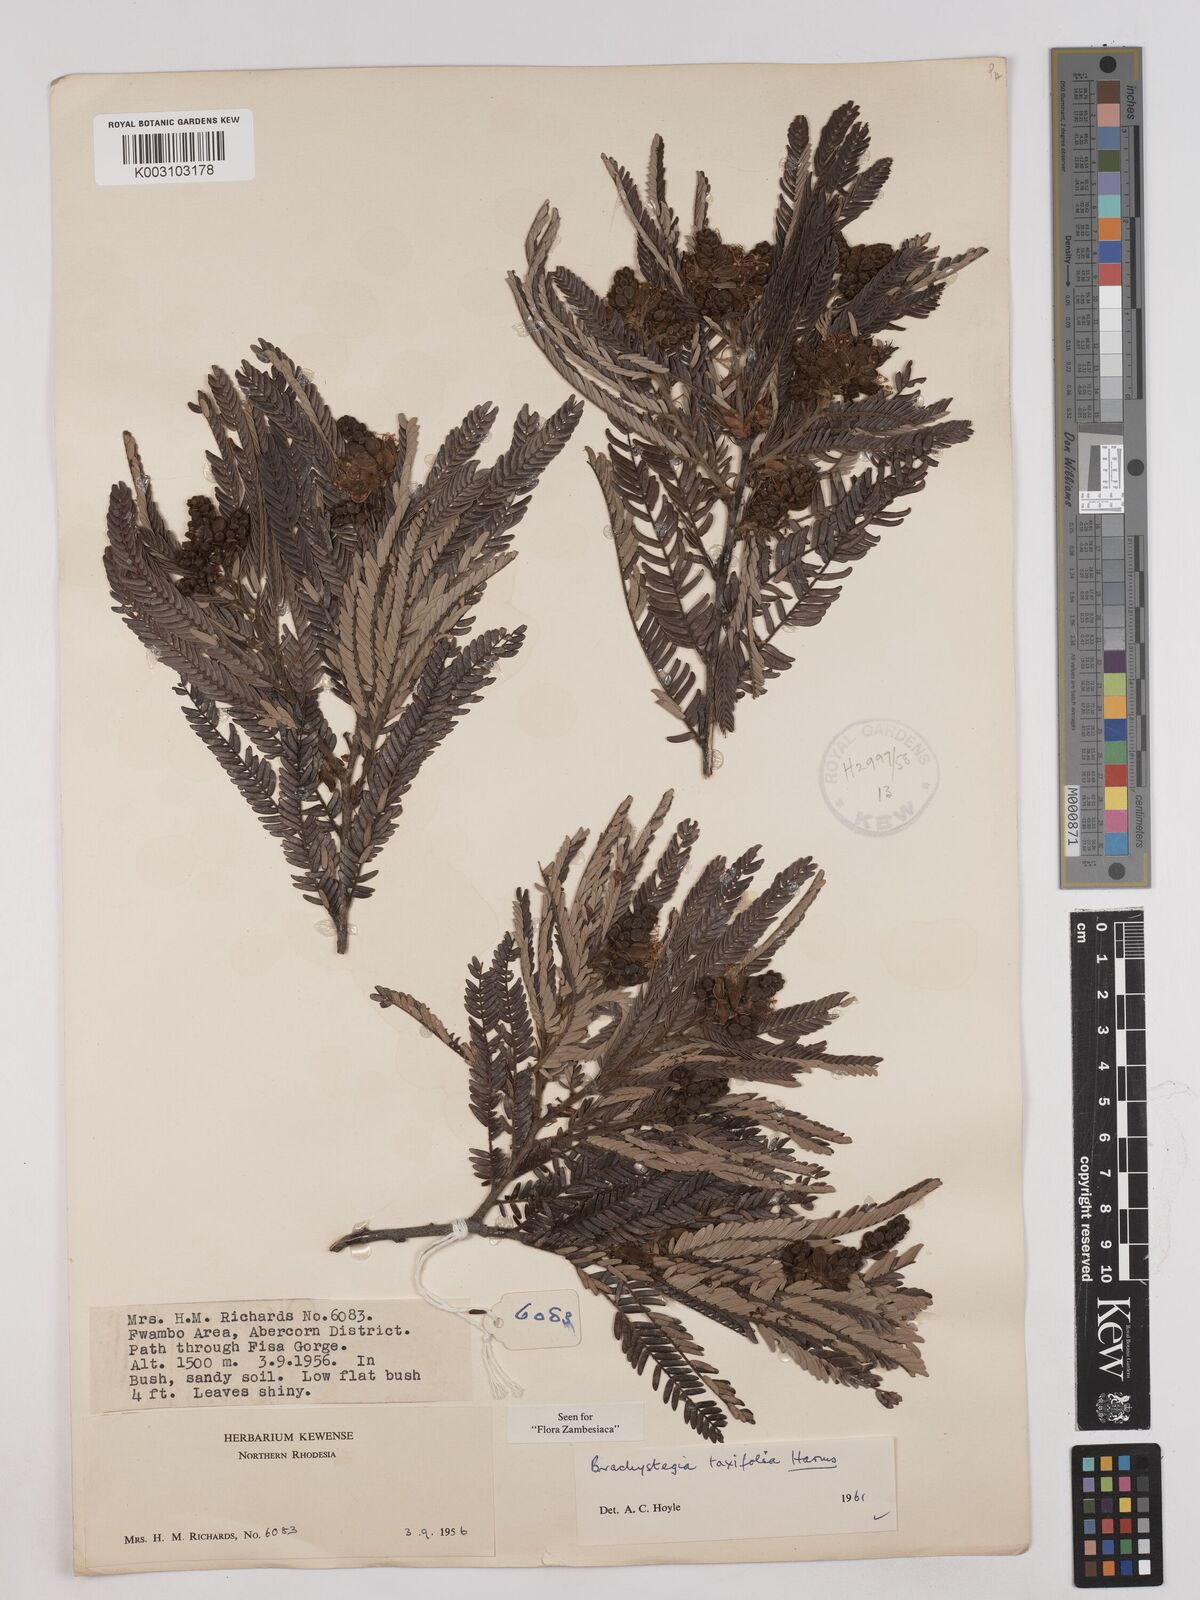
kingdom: Plantae
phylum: Tracheophyta
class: Magnoliopsida
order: Fabales
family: Fabaceae
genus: Brachystegia
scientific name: Brachystegia taxifolia
